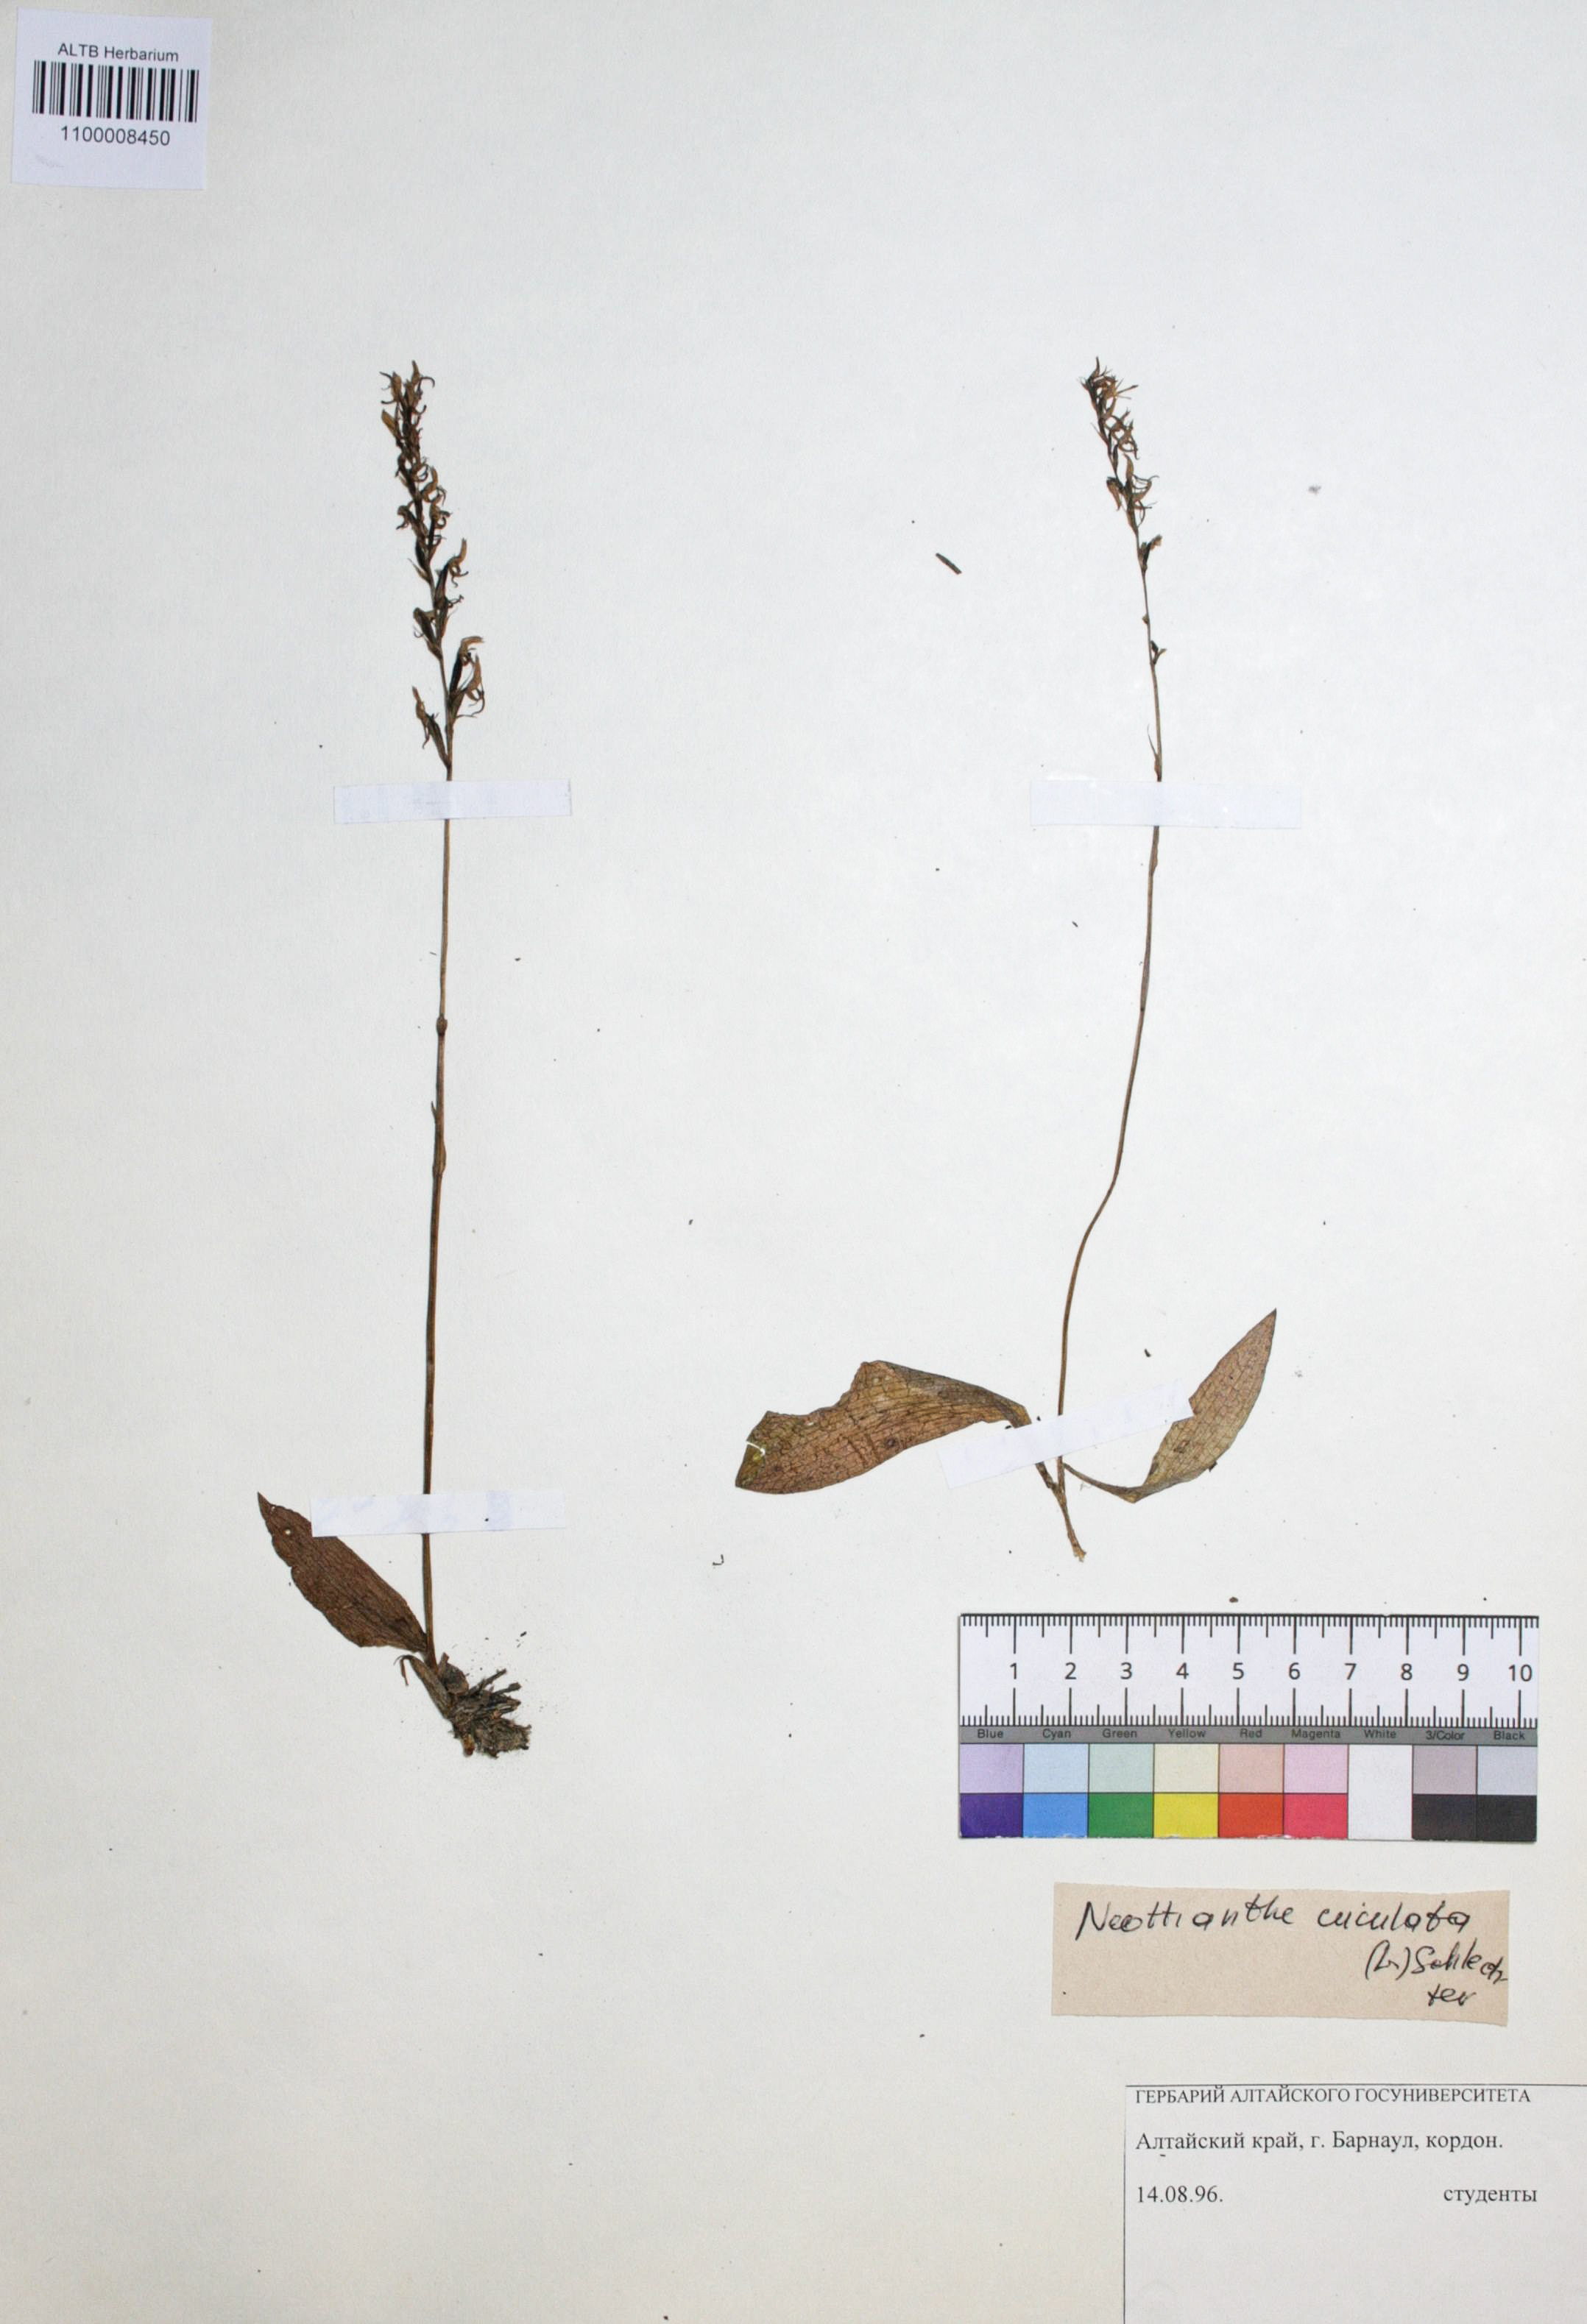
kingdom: Plantae
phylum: Tracheophyta
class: Liliopsida
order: Asparagales
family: Orchidaceae
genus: Hemipilia
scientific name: Hemipilia cucullata
